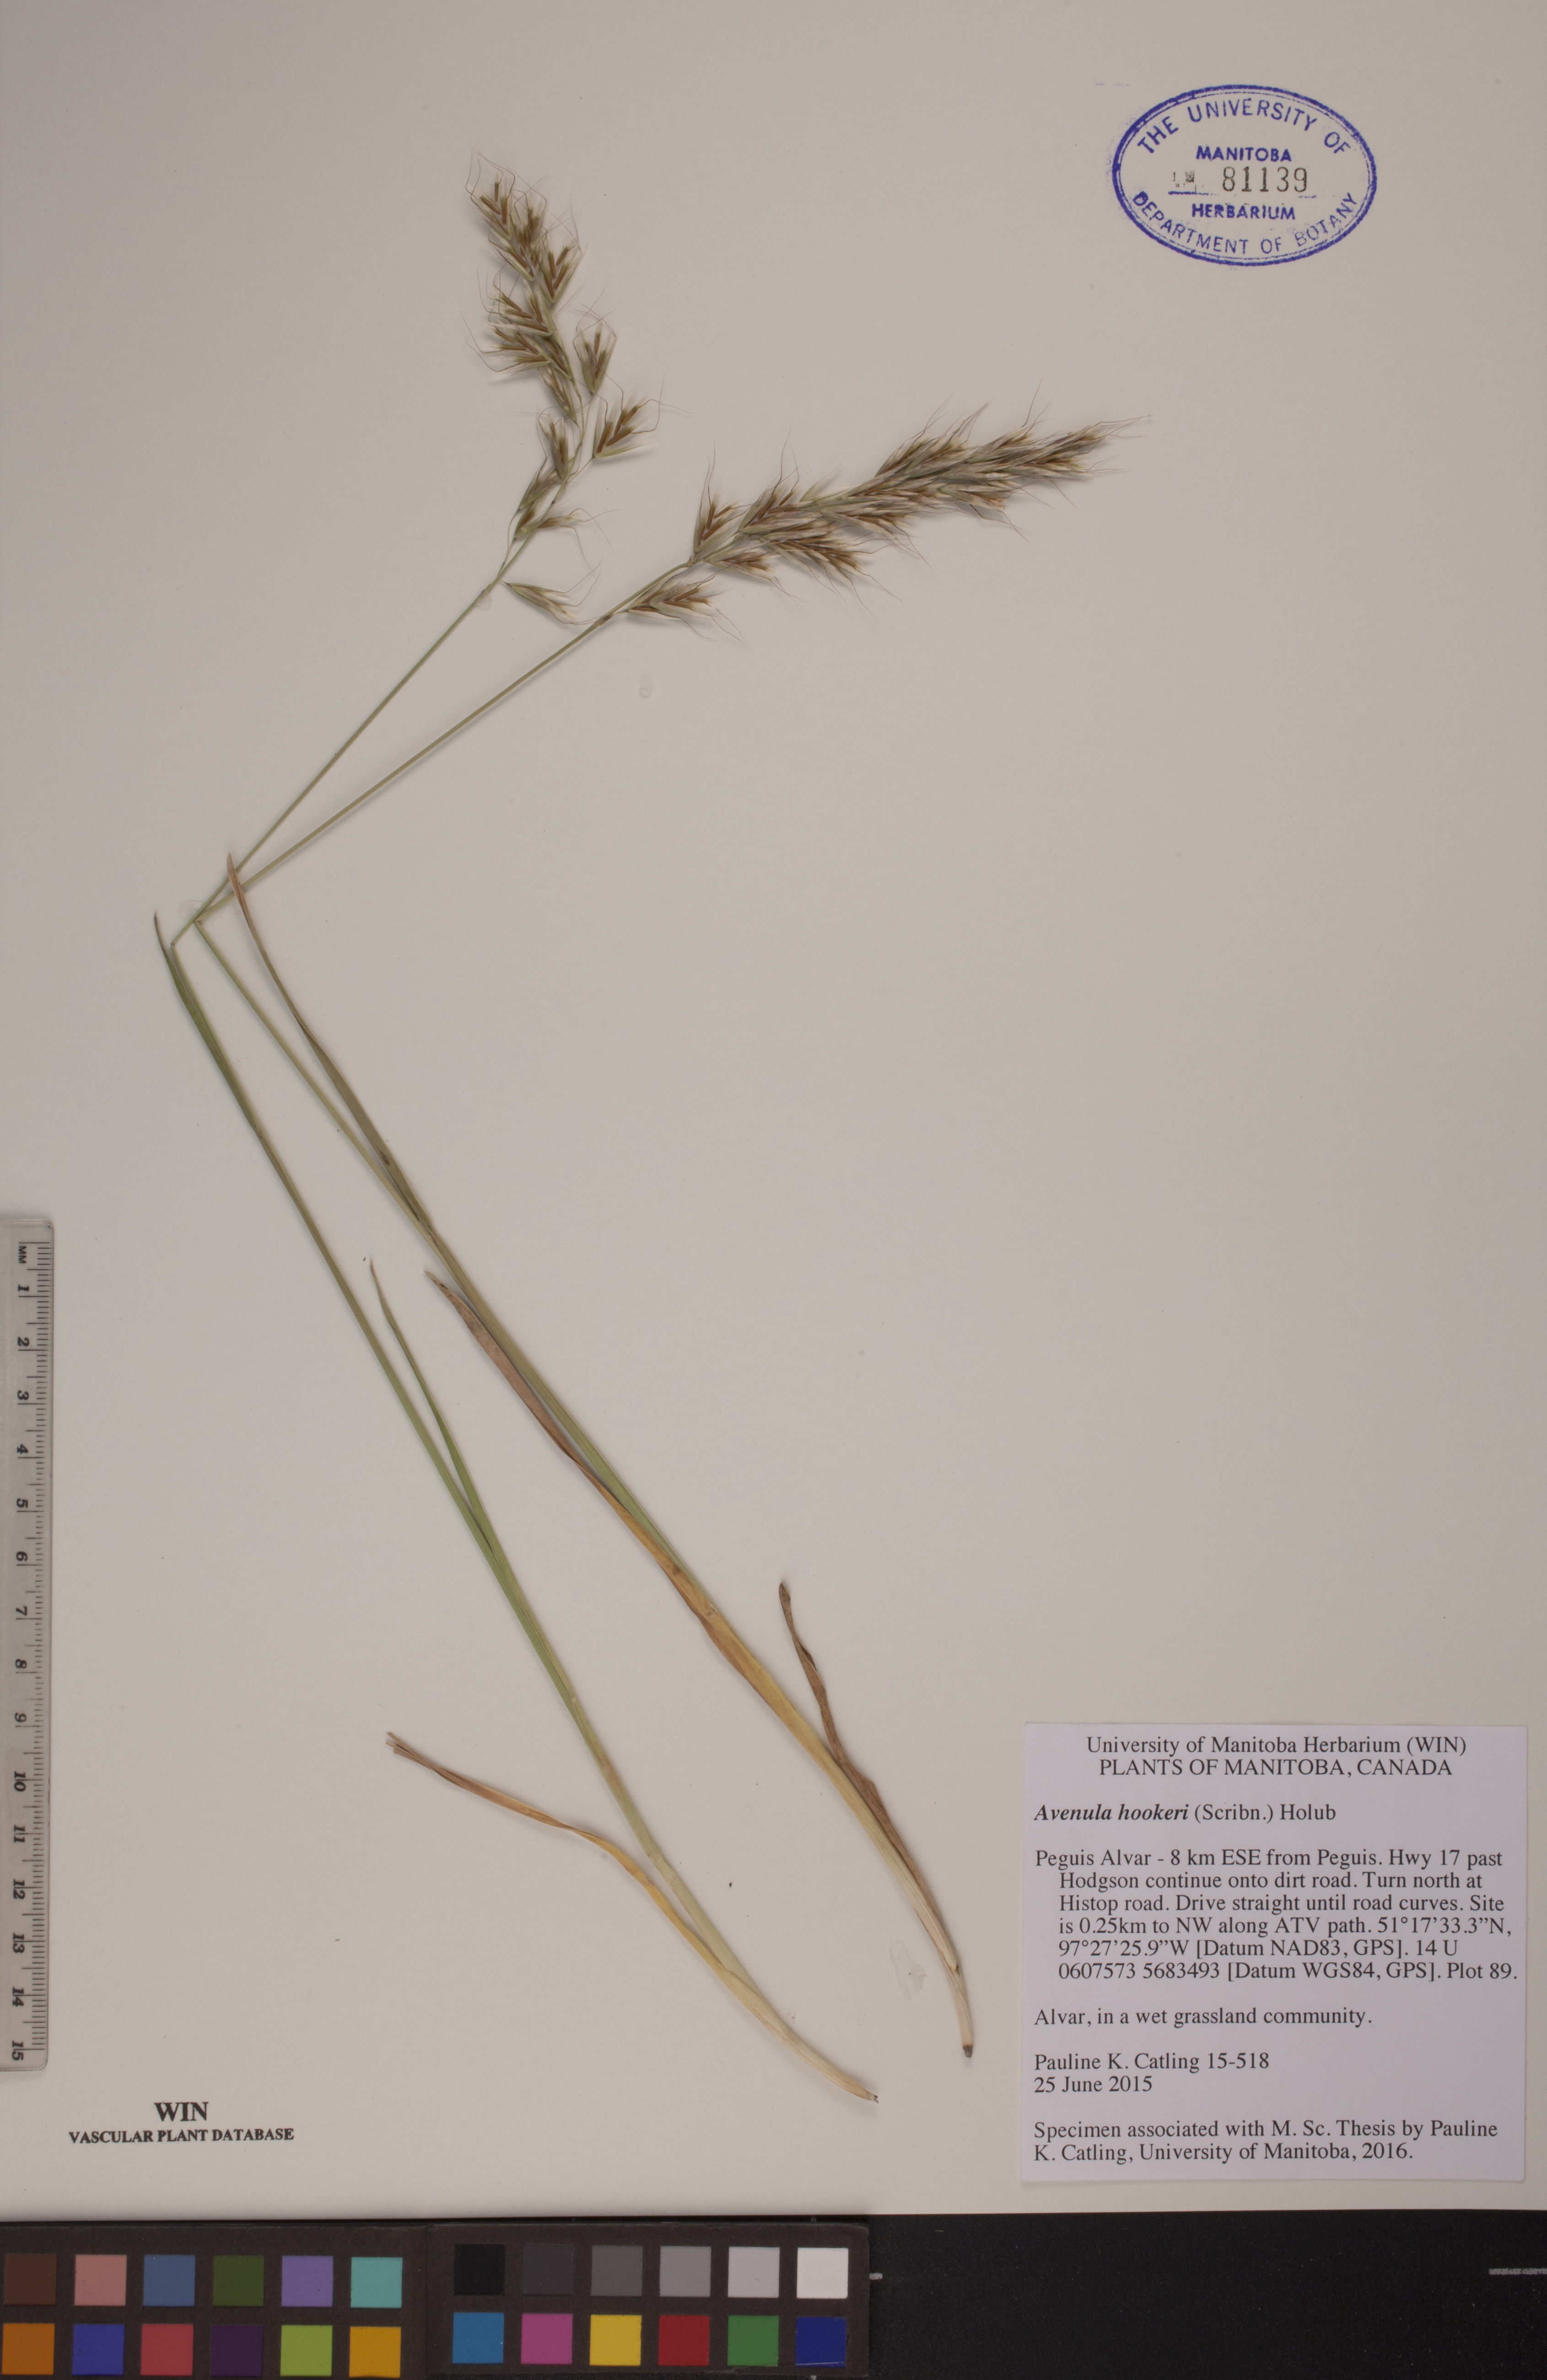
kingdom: Plantae
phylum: Tracheophyta
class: Liliopsida
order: Poales
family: Poaceae
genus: Helictochloa
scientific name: Helictochloa hookeri
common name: Hooker's alpine oatgrass
